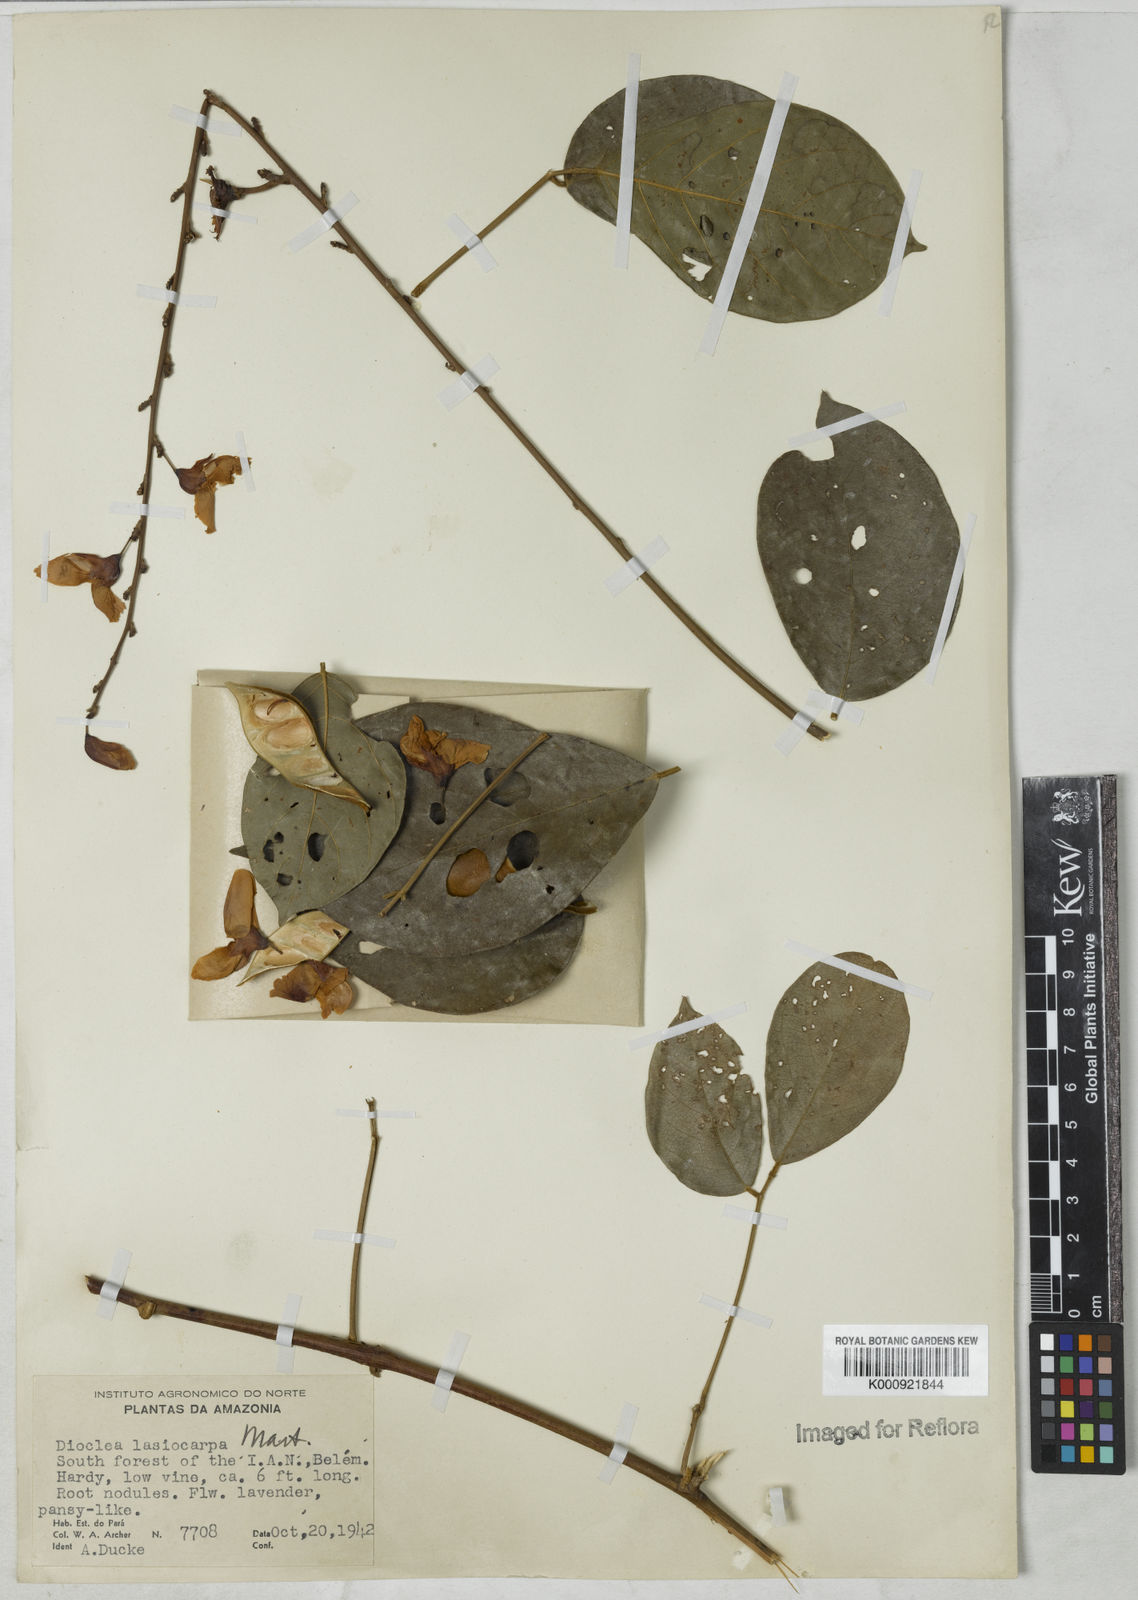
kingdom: Plantae
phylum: Tracheophyta
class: Magnoliopsida
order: Fabales
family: Fabaceae
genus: Dioclea
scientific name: Dioclea virgata
